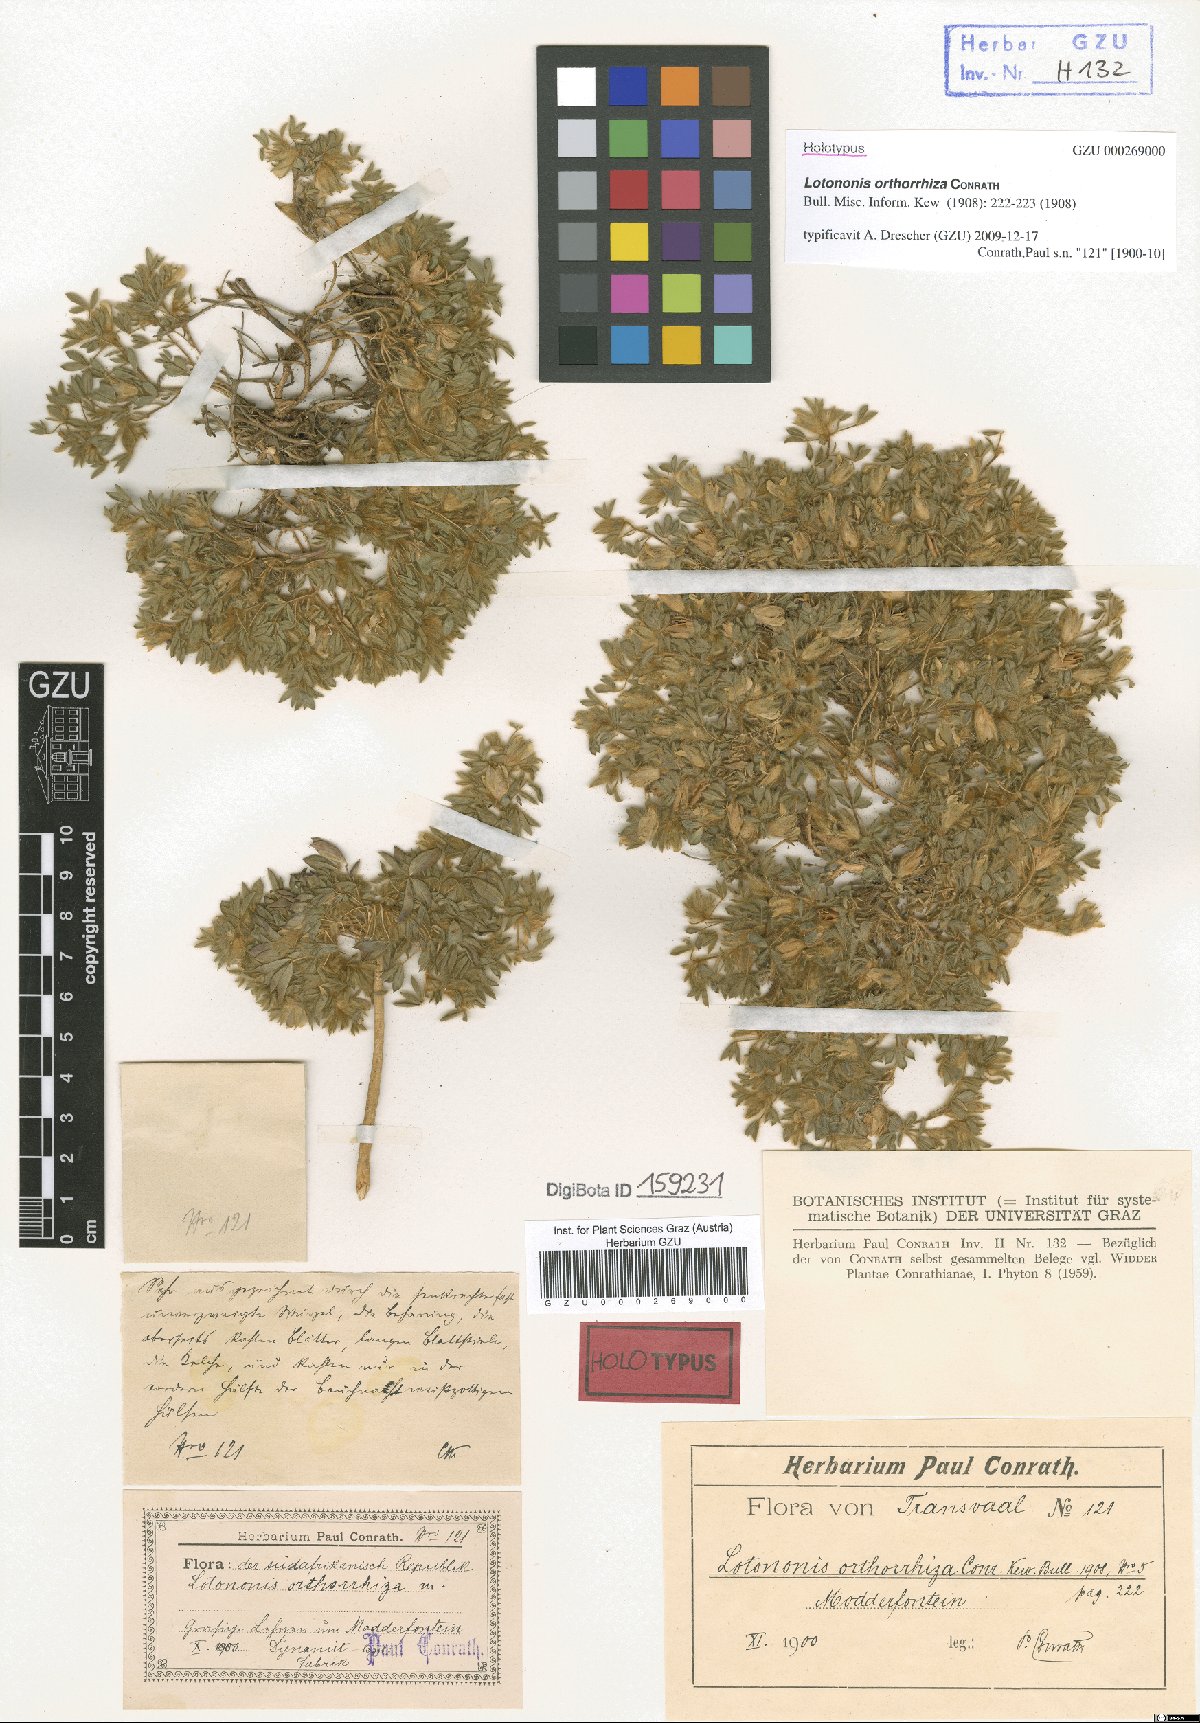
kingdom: Plantae
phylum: Tracheophyta
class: Magnoliopsida
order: Fabales
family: Fabaceae
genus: Leobordea
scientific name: Leobordea divaricata
